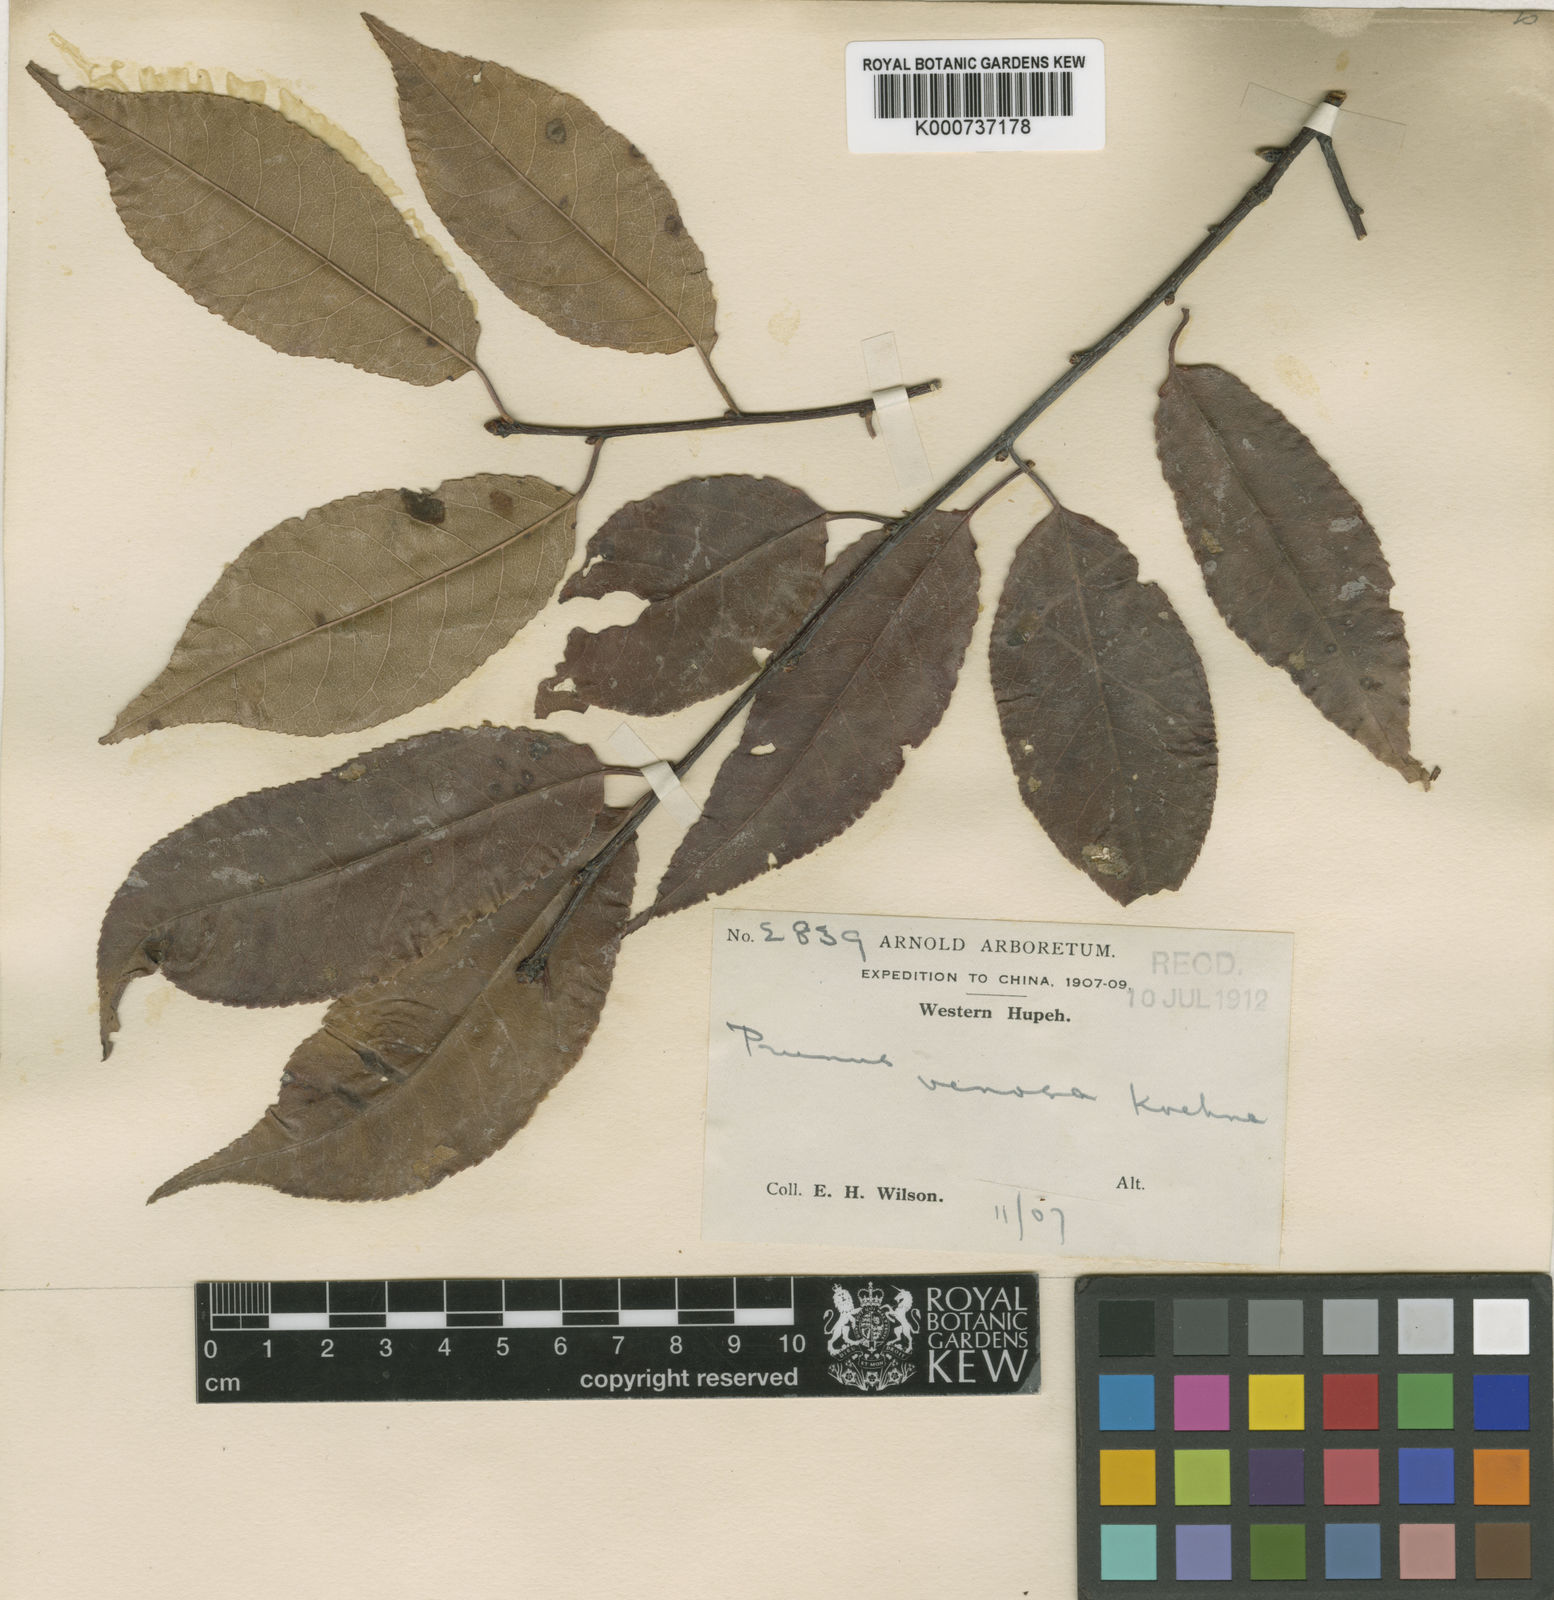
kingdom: Plantae
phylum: Tracheophyta
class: Magnoliopsida
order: Rosales
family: Rosaceae
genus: Prunus
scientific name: Prunus buergeriana
